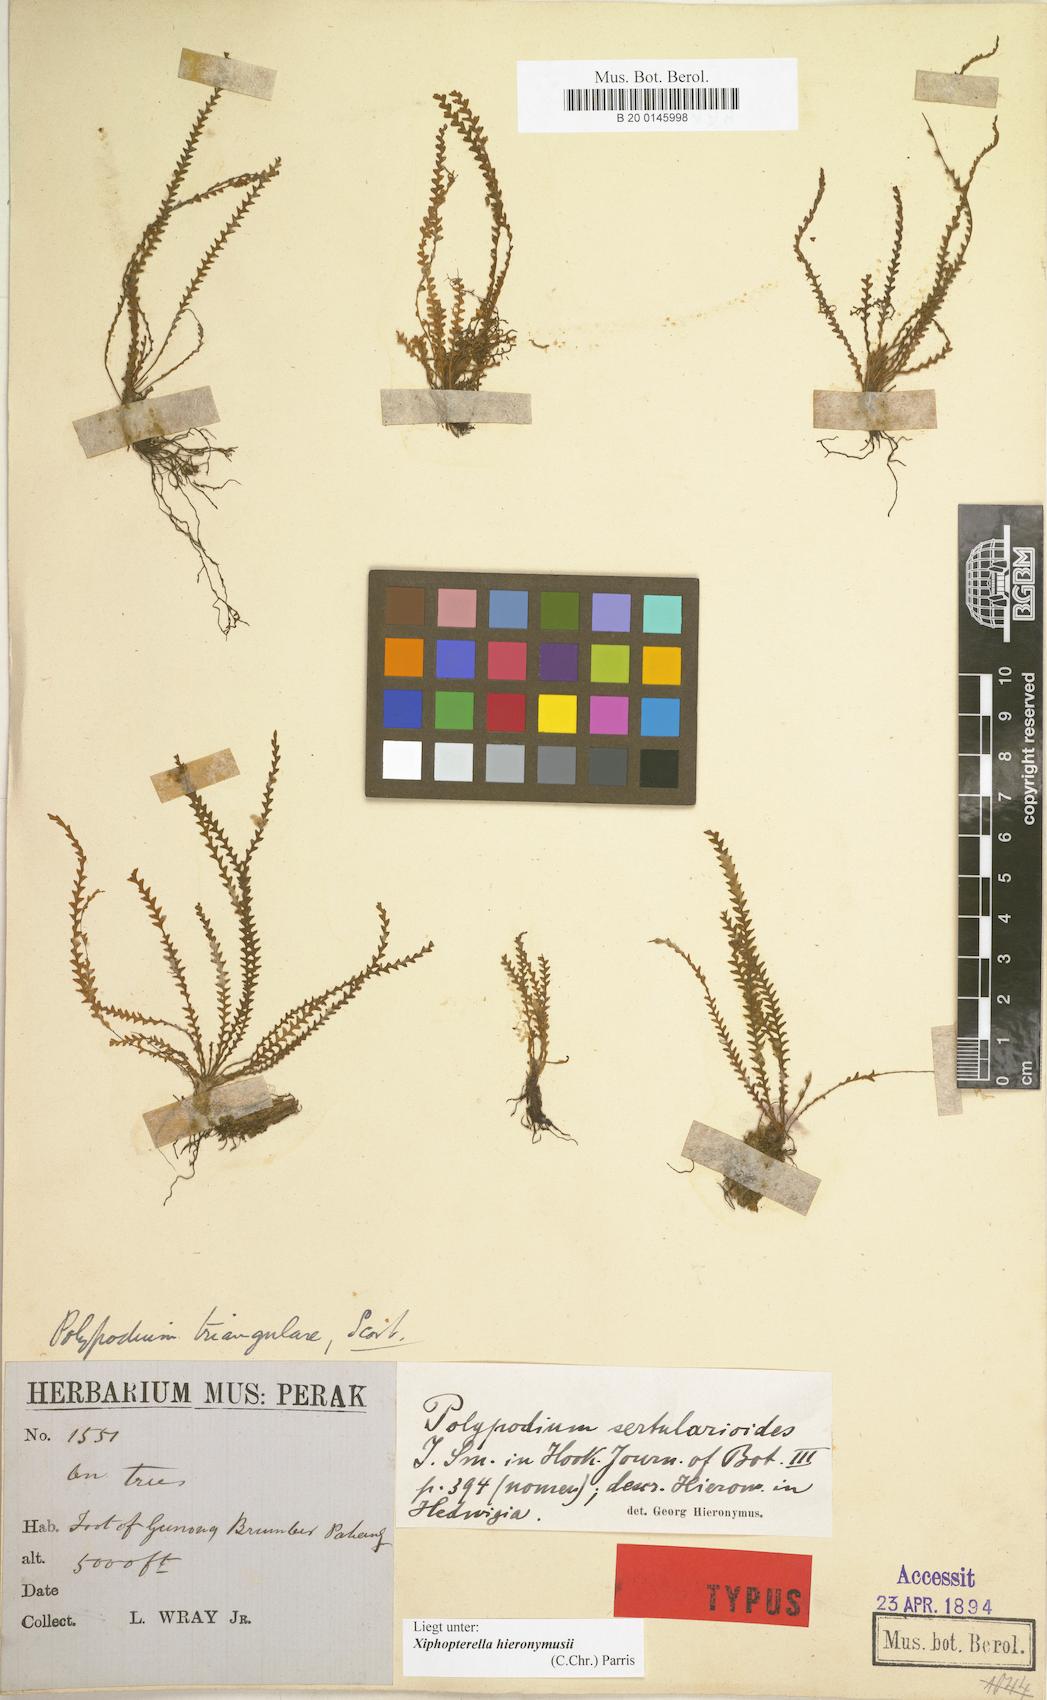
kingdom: Plantae
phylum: Tracheophyta
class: Polypodiopsida
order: Polypodiales
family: Polypodiaceae
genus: Xiphopterella
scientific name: Xiphopterella hieronymusii
